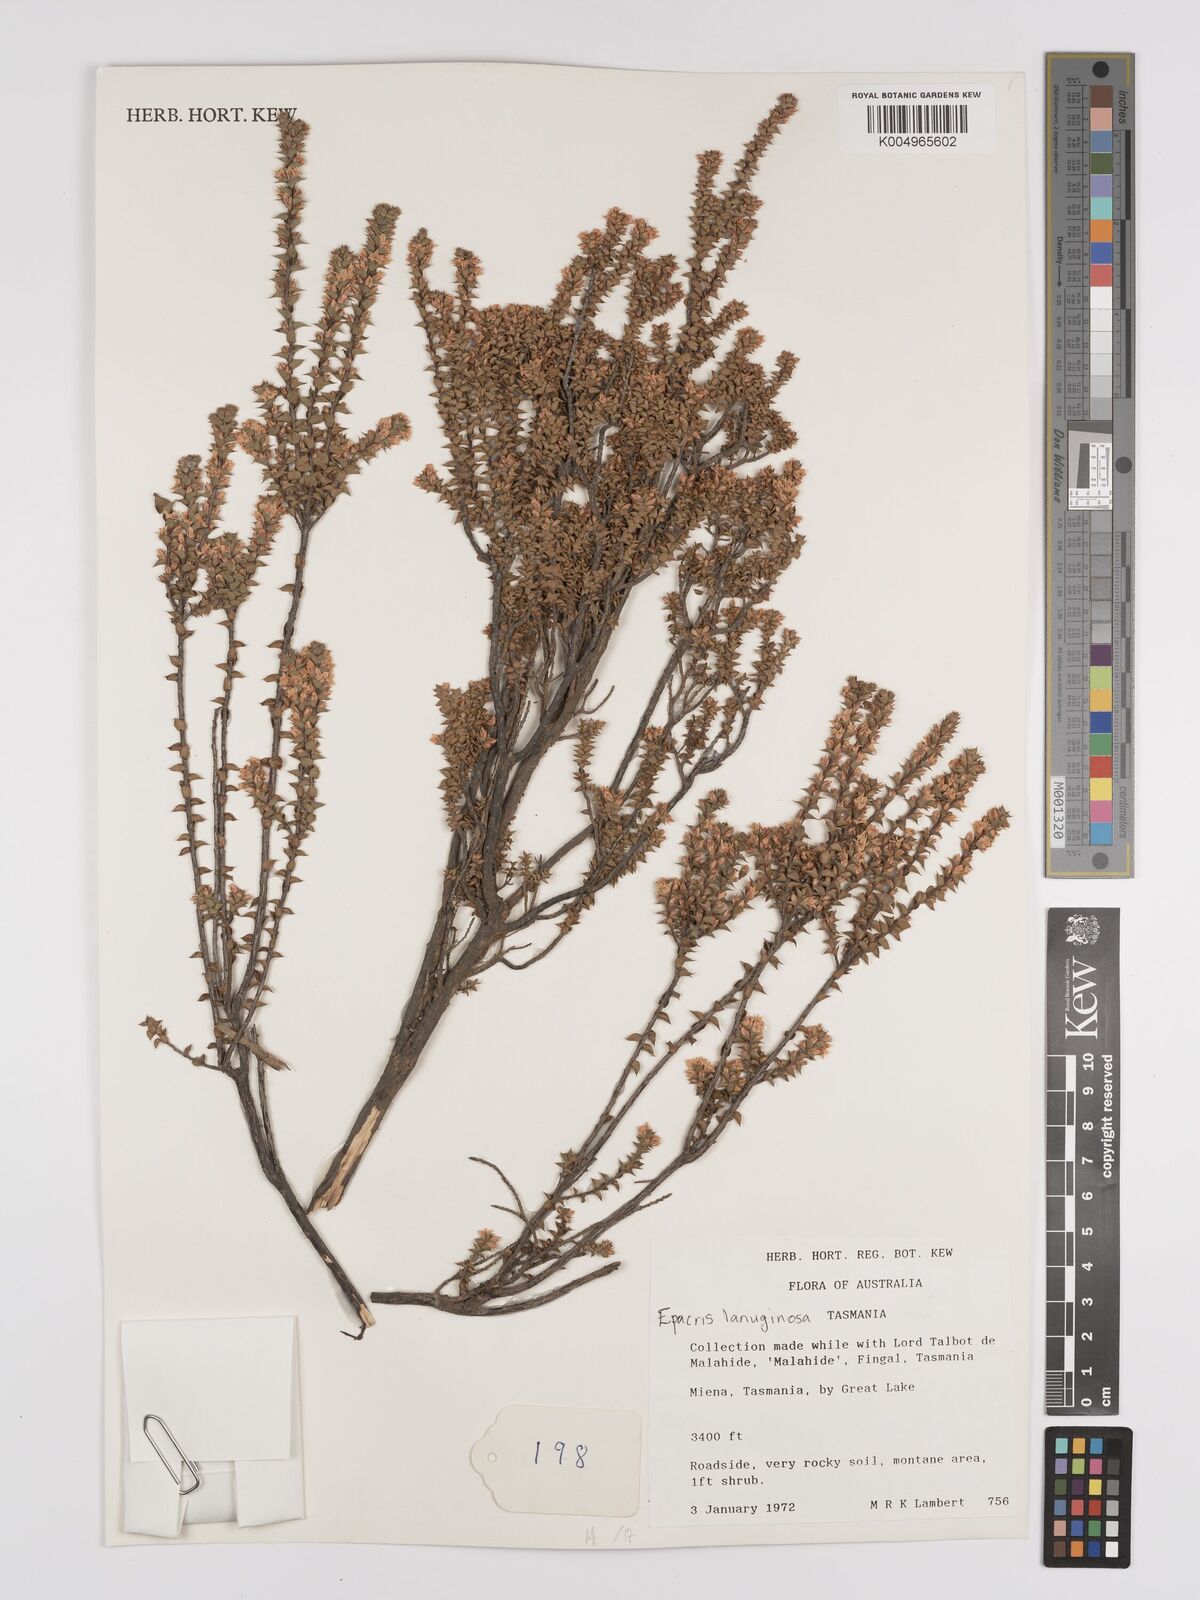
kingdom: Plantae
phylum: Tracheophyta
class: Magnoliopsida
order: Ericales
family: Ericaceae
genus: Epacris
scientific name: Epacris lanuginosa
